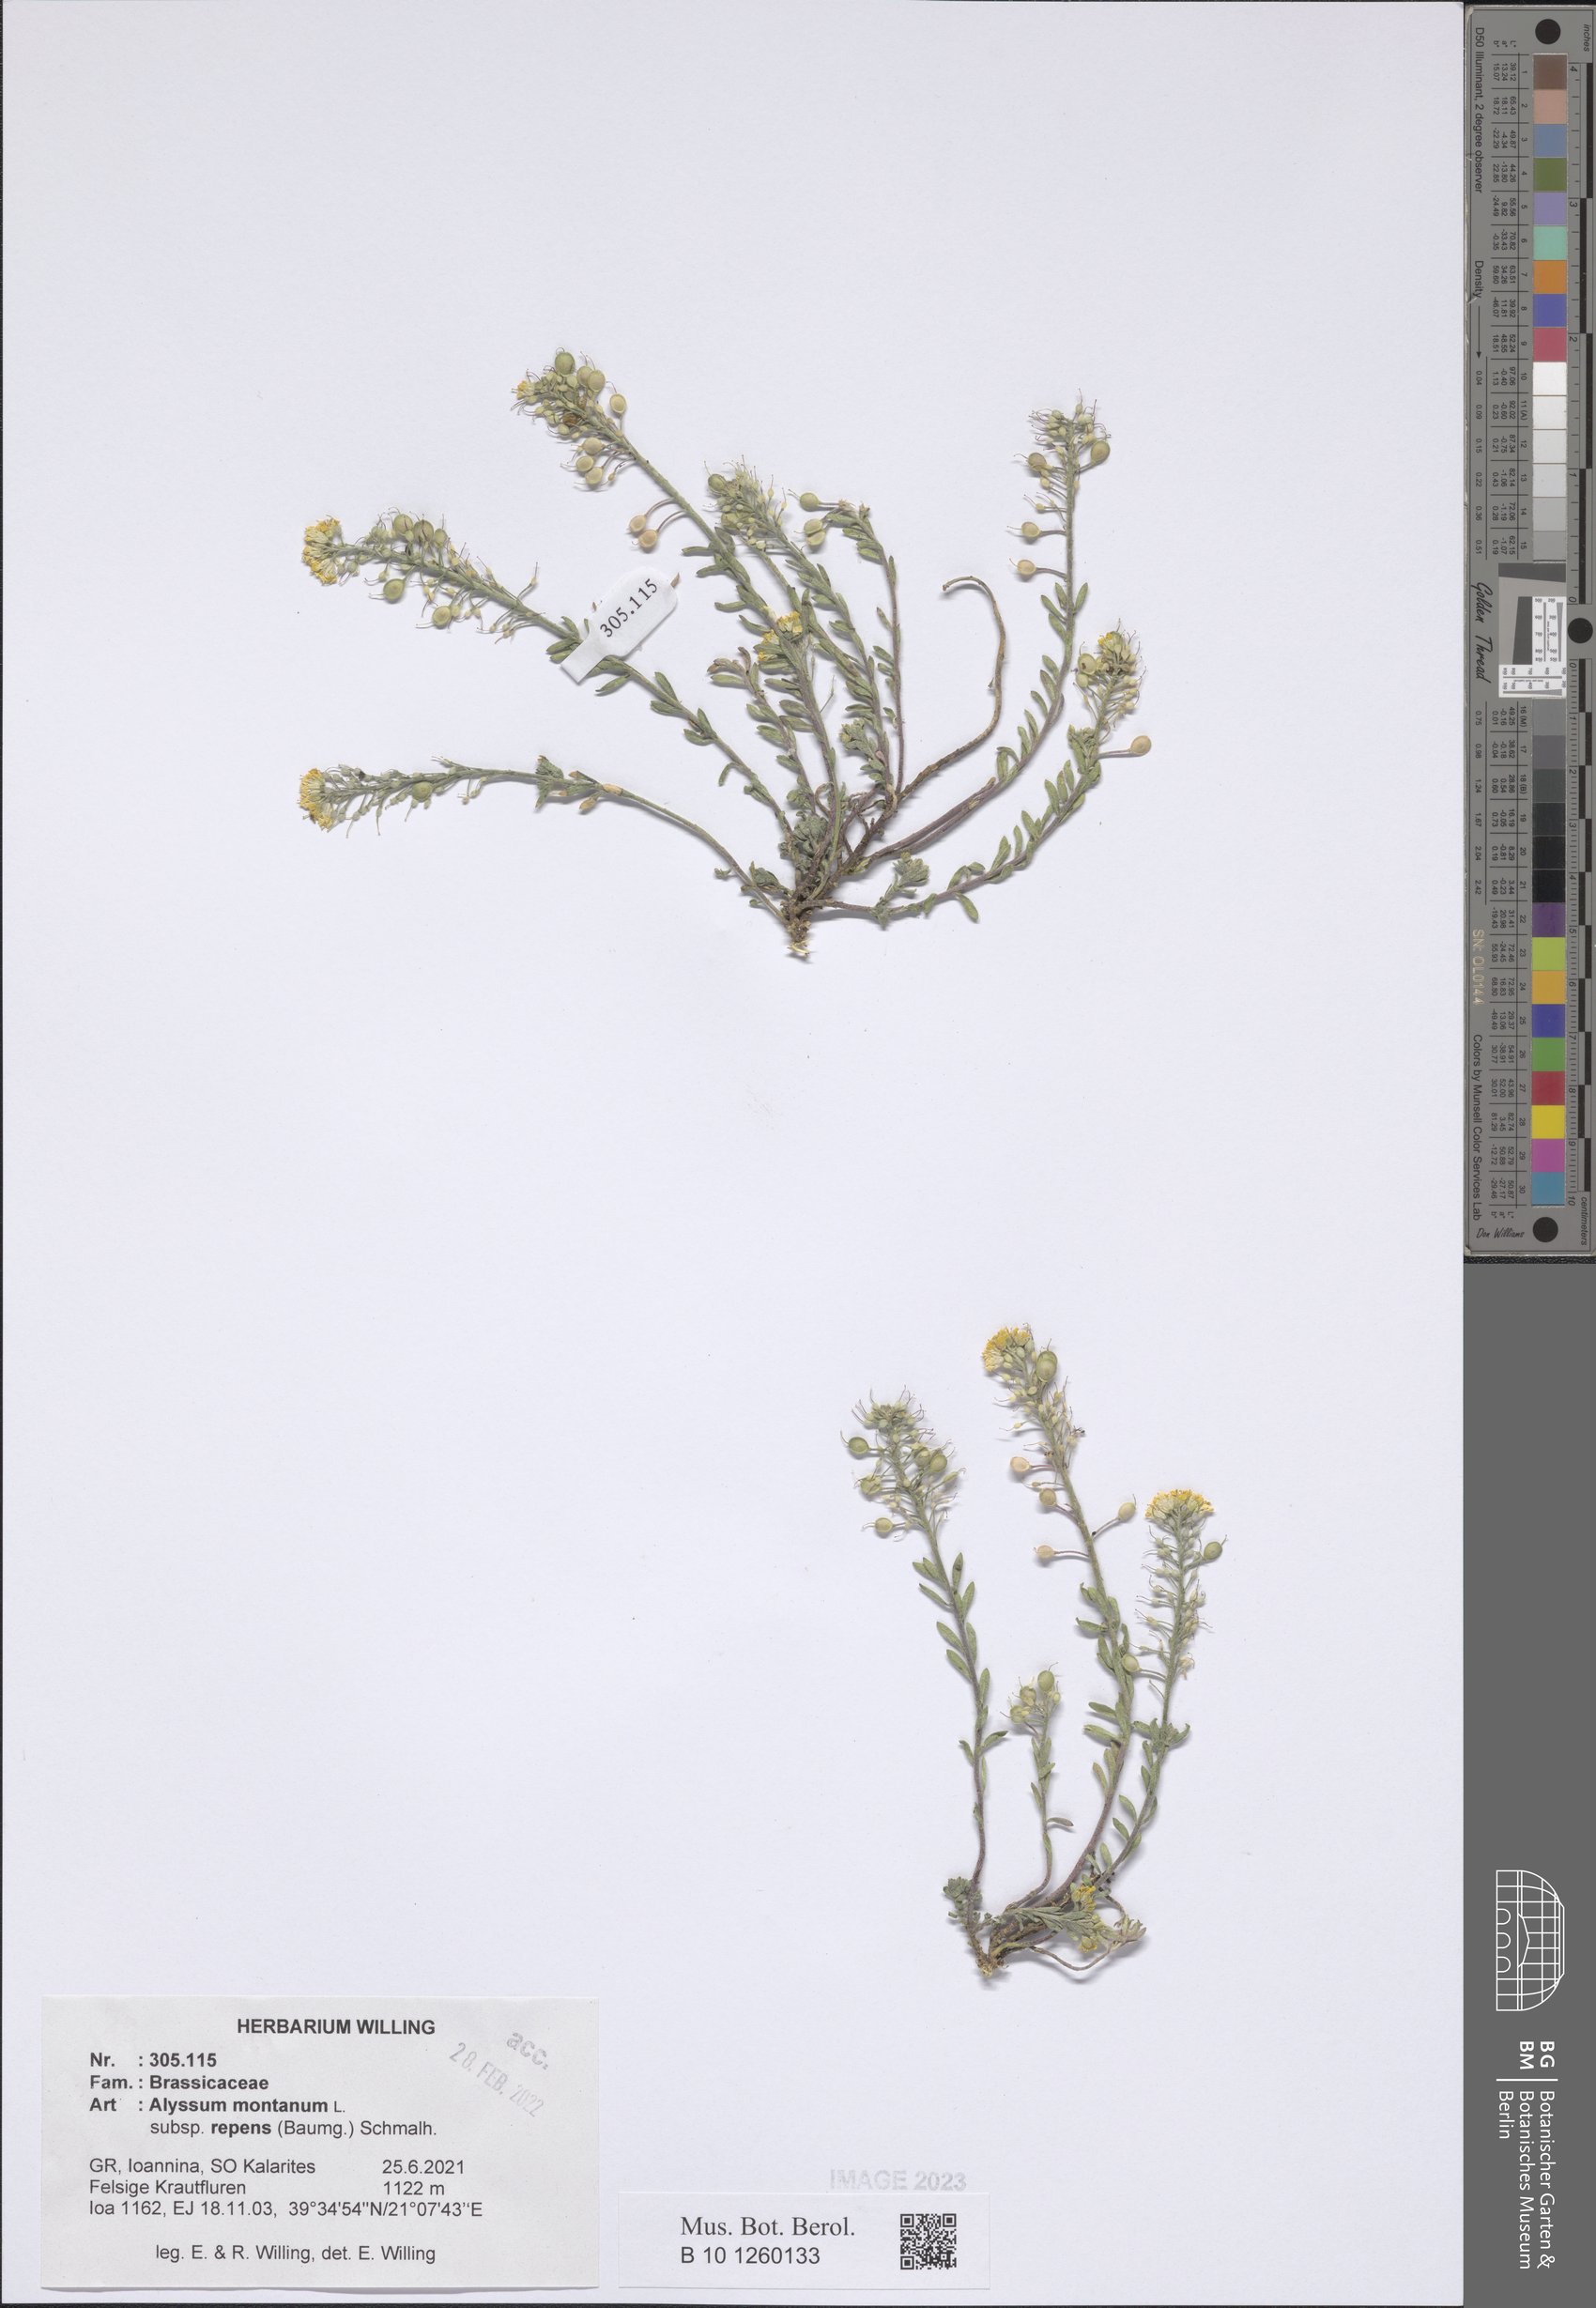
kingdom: Plantae
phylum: Tracheophyta
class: Magnoliopsida
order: Brassicales
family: Brassicaceae
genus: Alyssum
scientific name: Alyssum trichostachyum
